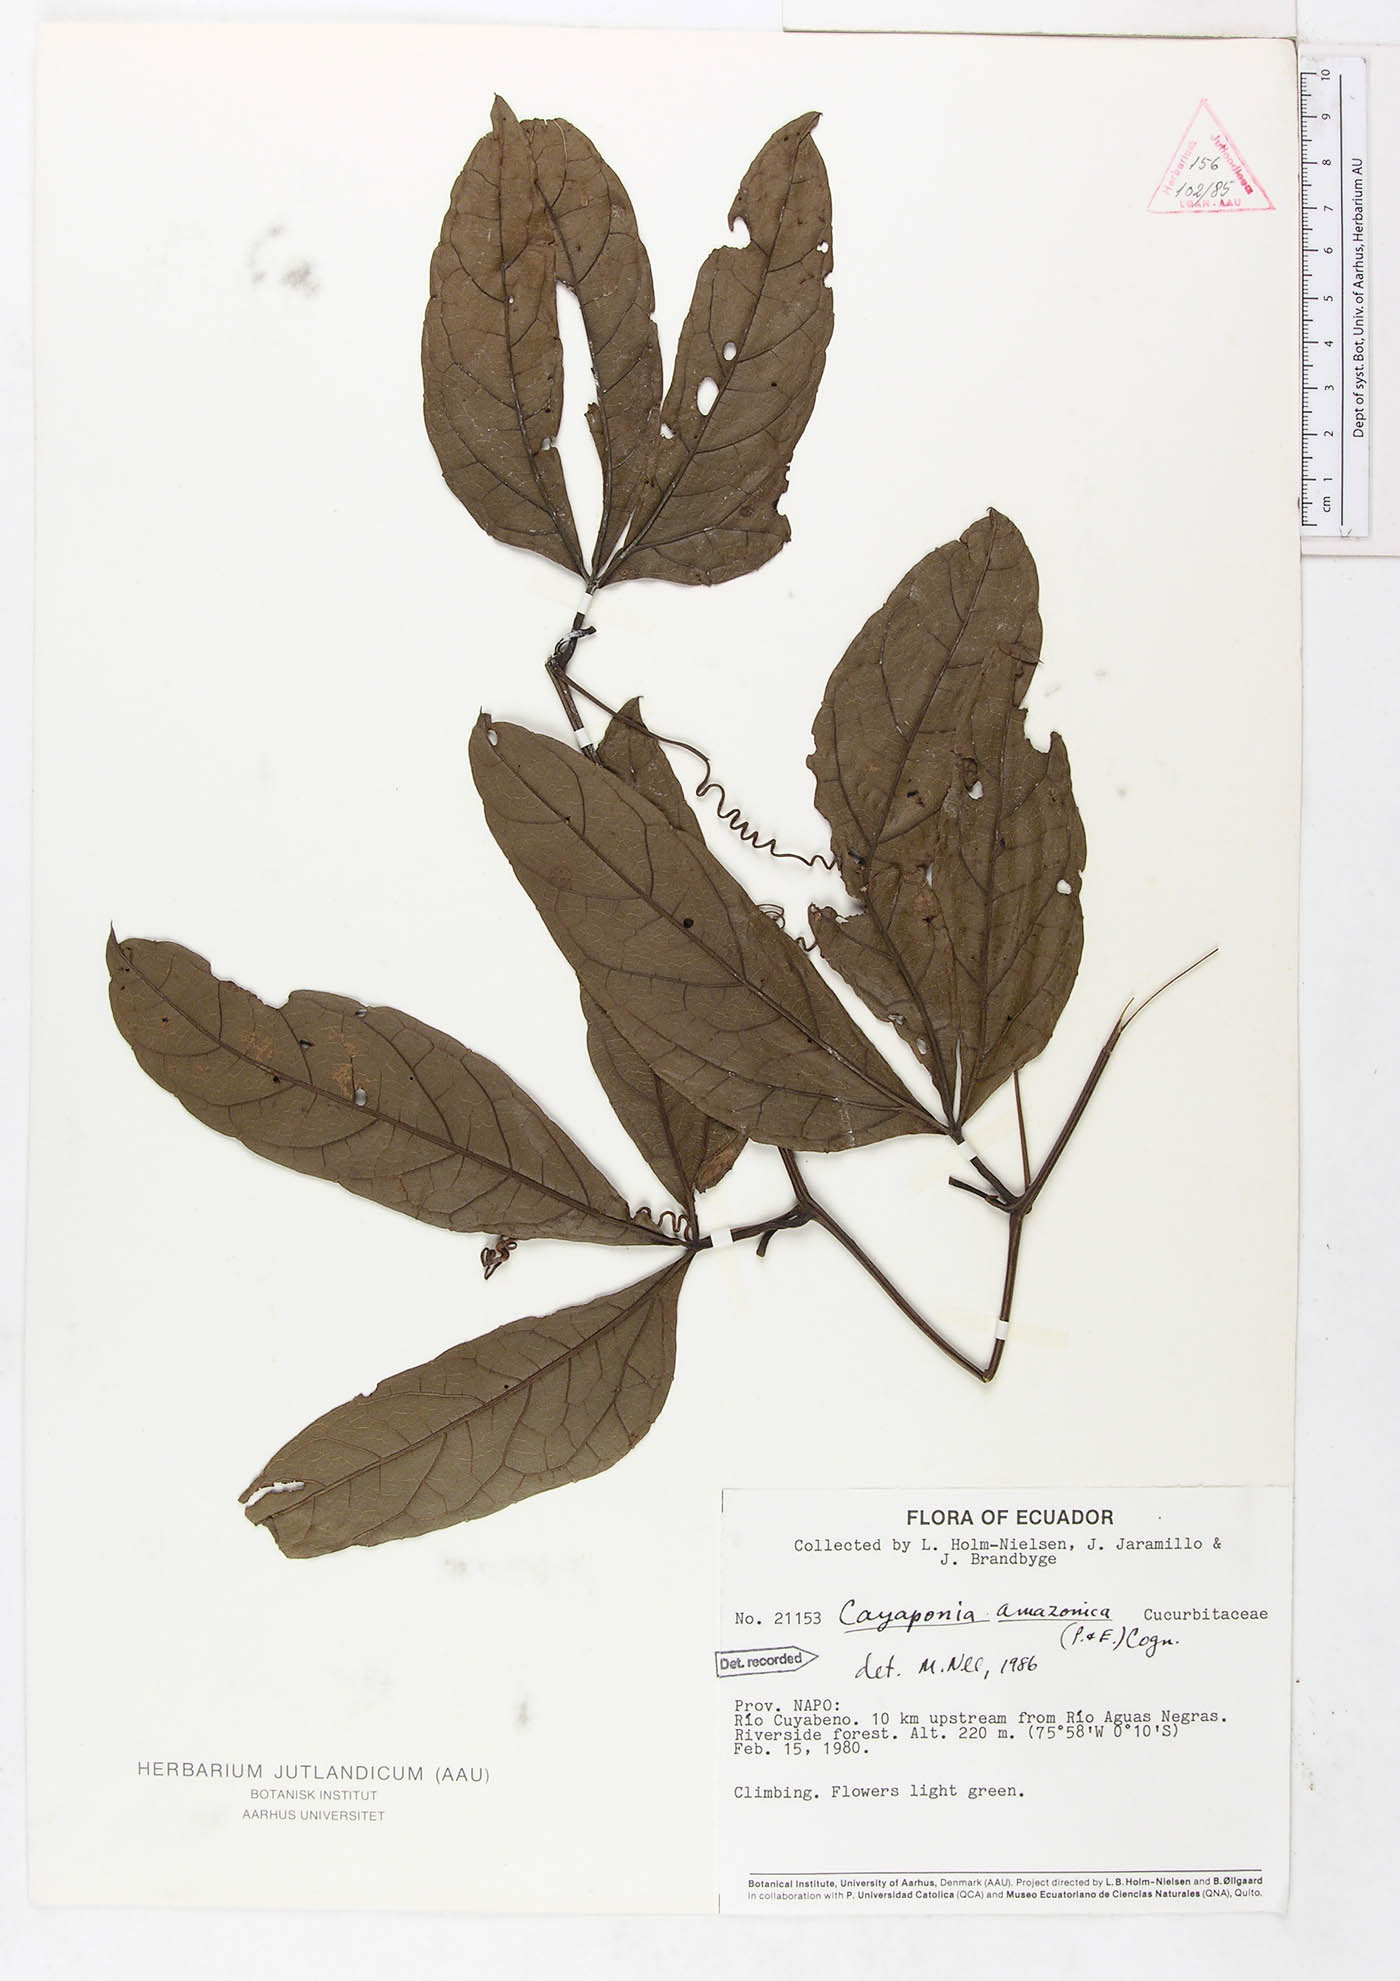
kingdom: Plantae
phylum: Tracheophyta
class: Magnoliopsida
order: Cucurbitales
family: Cucurbitaceae
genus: Cayaponia
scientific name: Cayaponia amazonica
